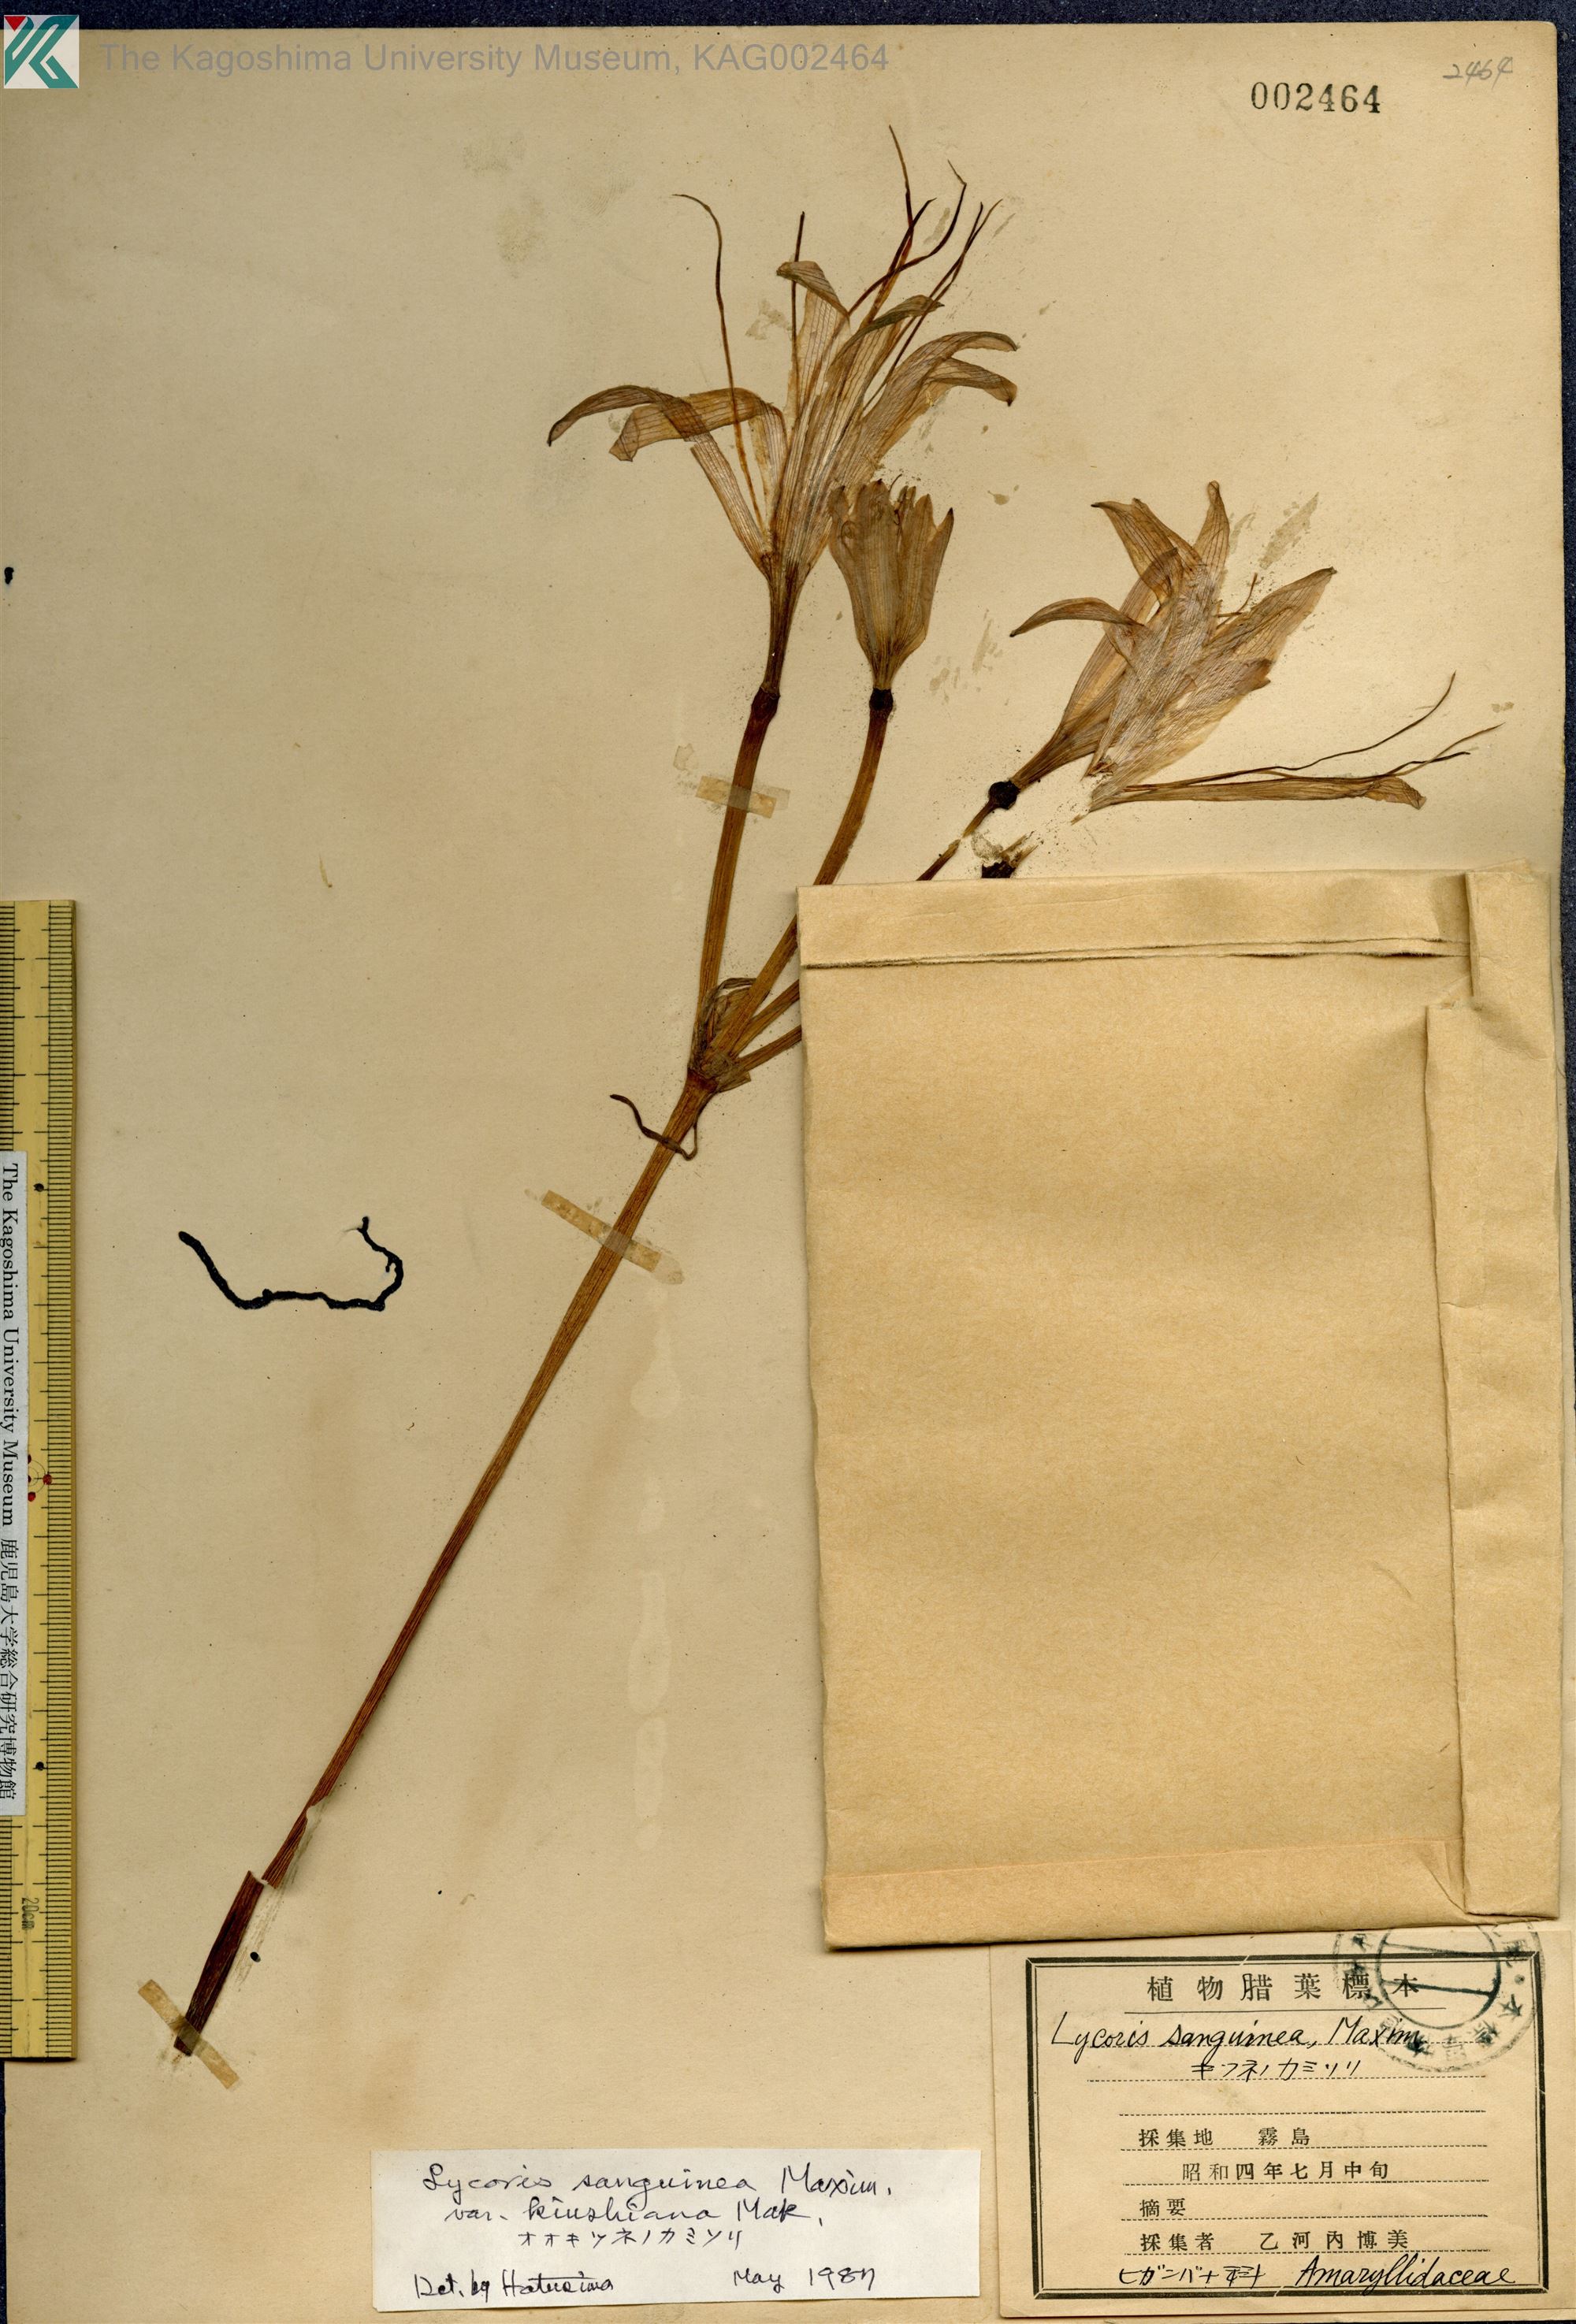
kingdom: Plantae
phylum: Tracheophyta
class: Liliopsida
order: Asparagales
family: Amaryllidaceae
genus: Lycoris
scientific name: Lycoris sanguinea
